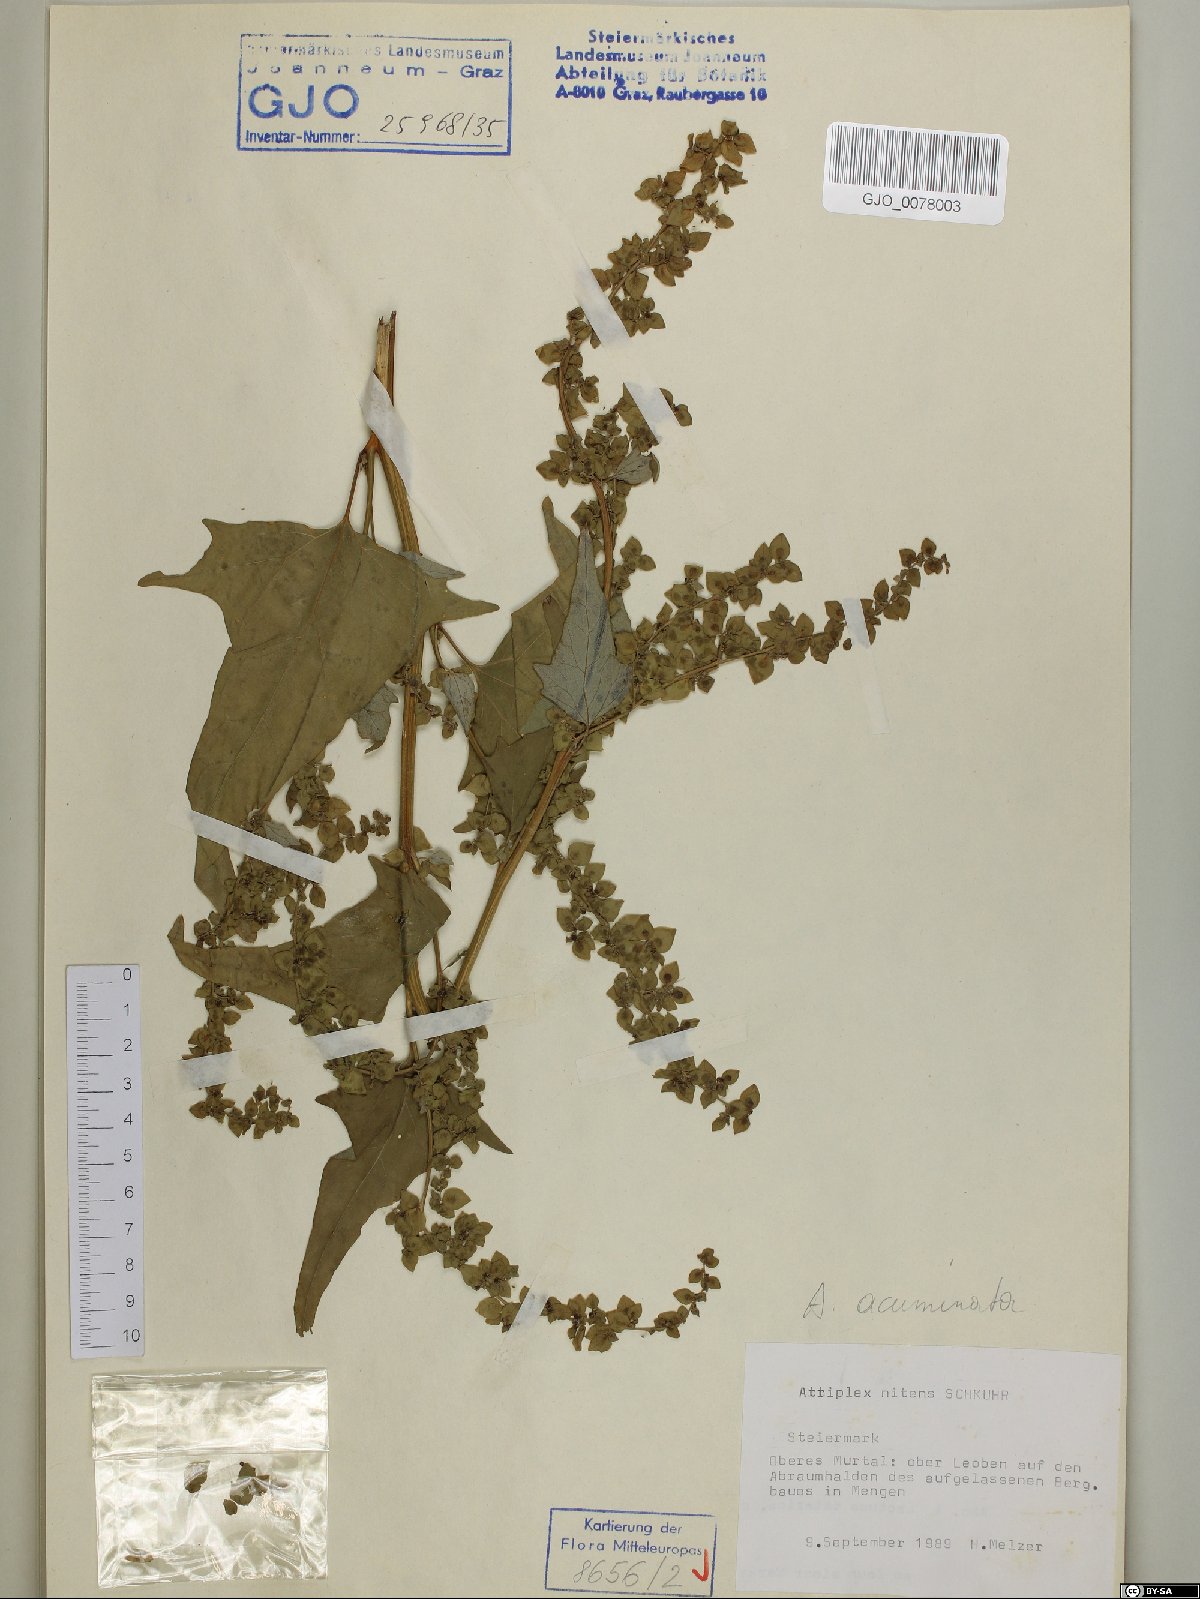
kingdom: Plantae
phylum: Tracheophyta
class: Magnoliopsida
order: Caryophyllales
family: Amaranthaceae
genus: Atriplex
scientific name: Atriplex sagittata
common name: Purple orache
